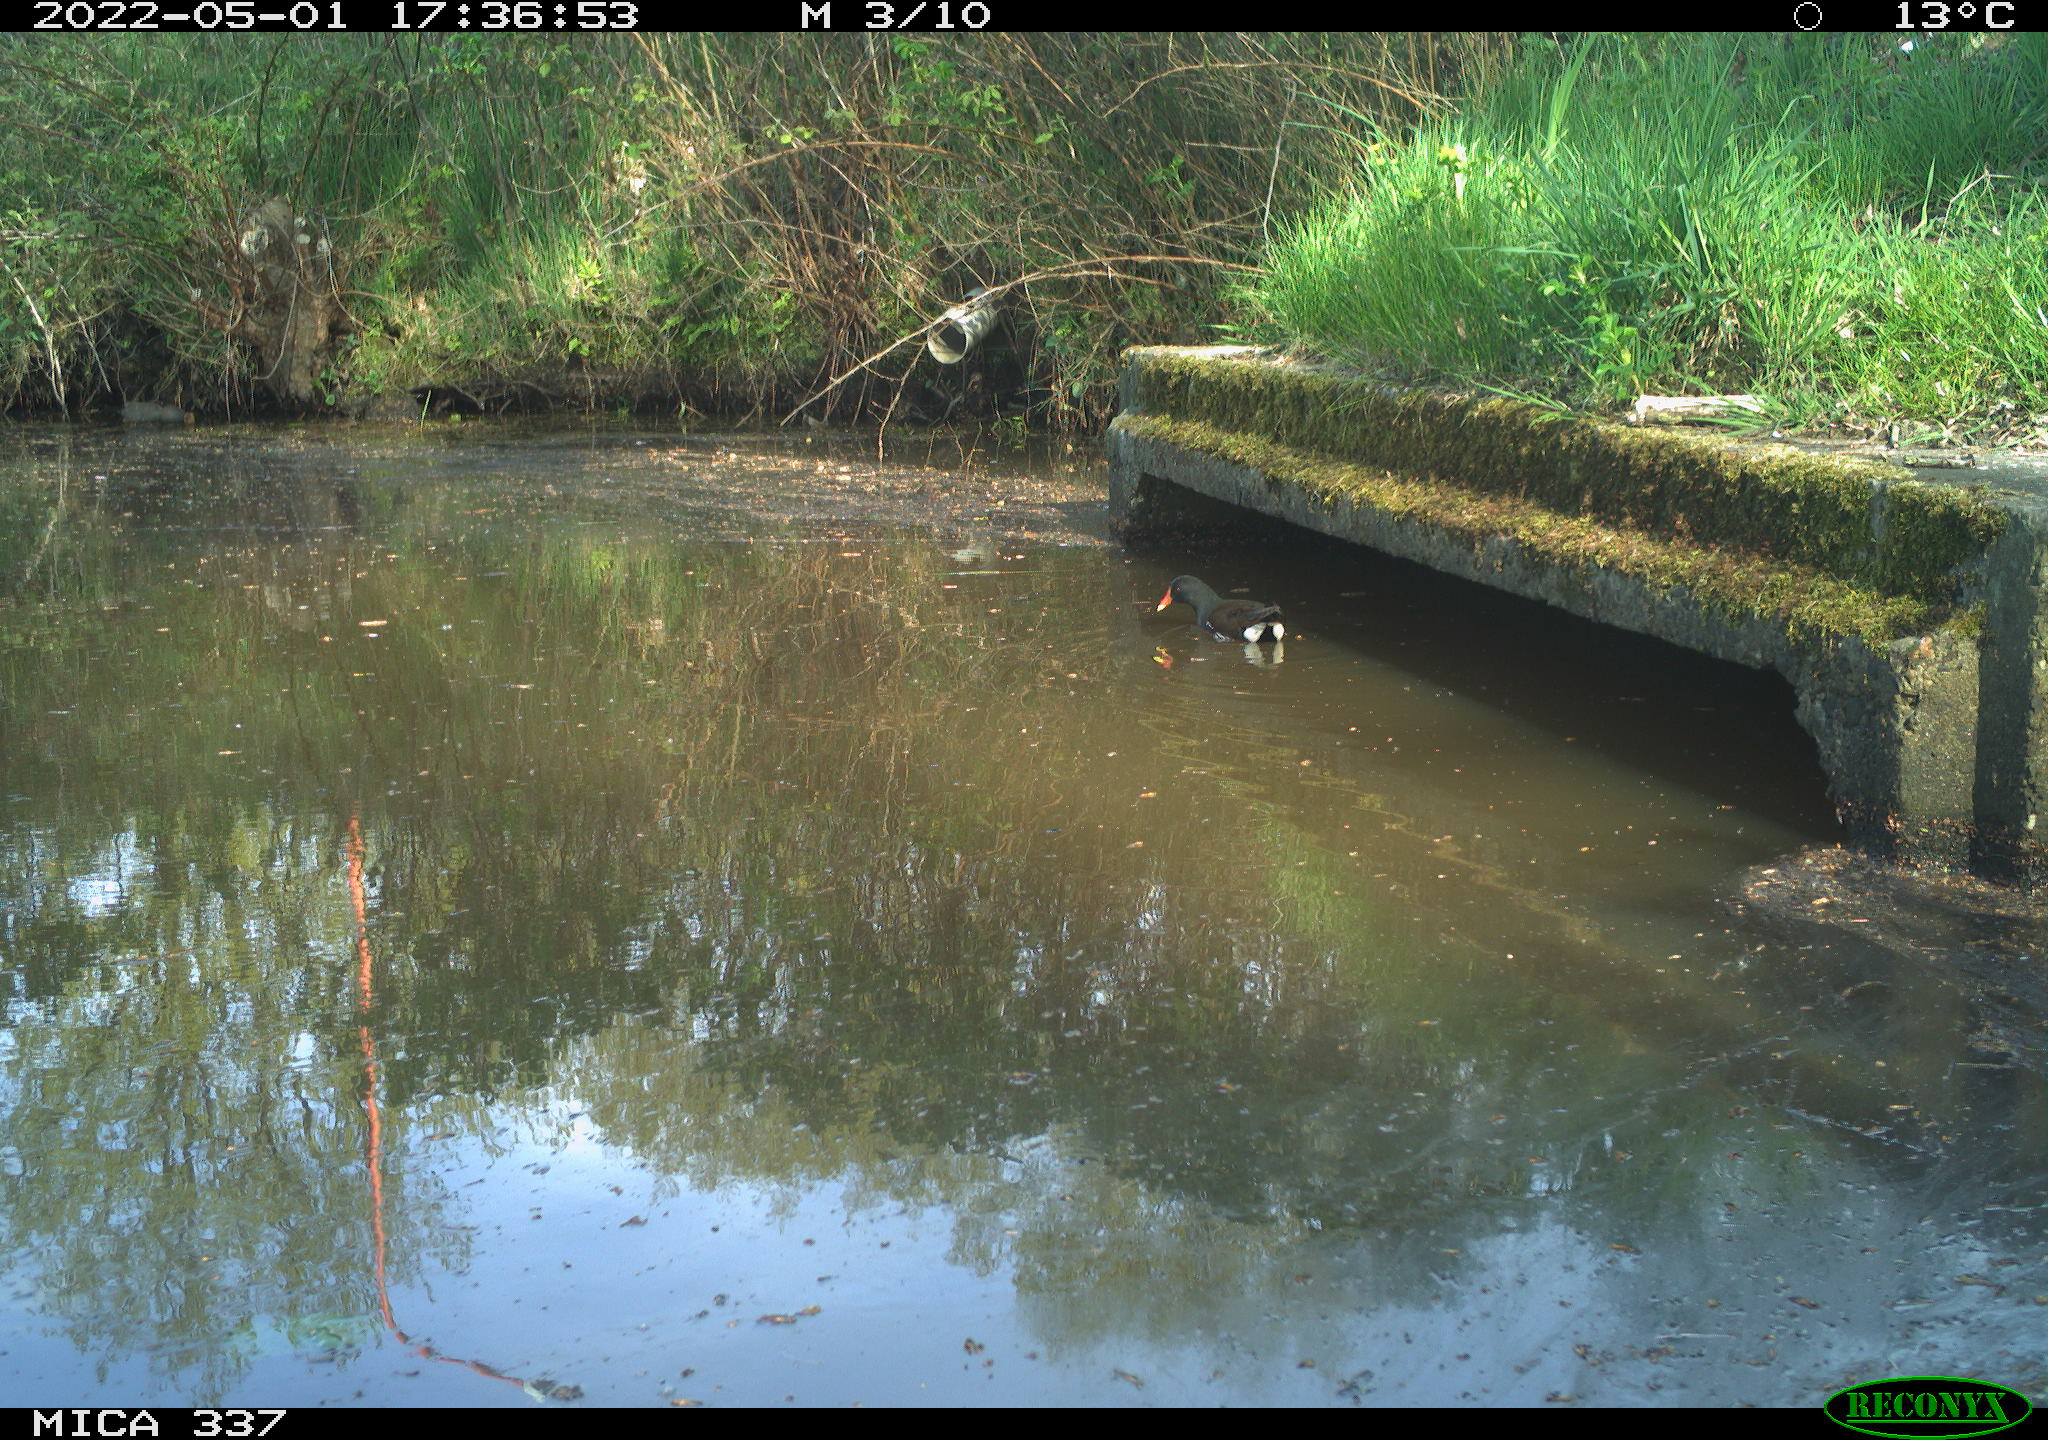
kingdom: Animalia
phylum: Chordata
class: Aves
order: Gruiformes
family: Rallidae
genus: Gallinula
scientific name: Gallinula chloropus
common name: Common moorhen
